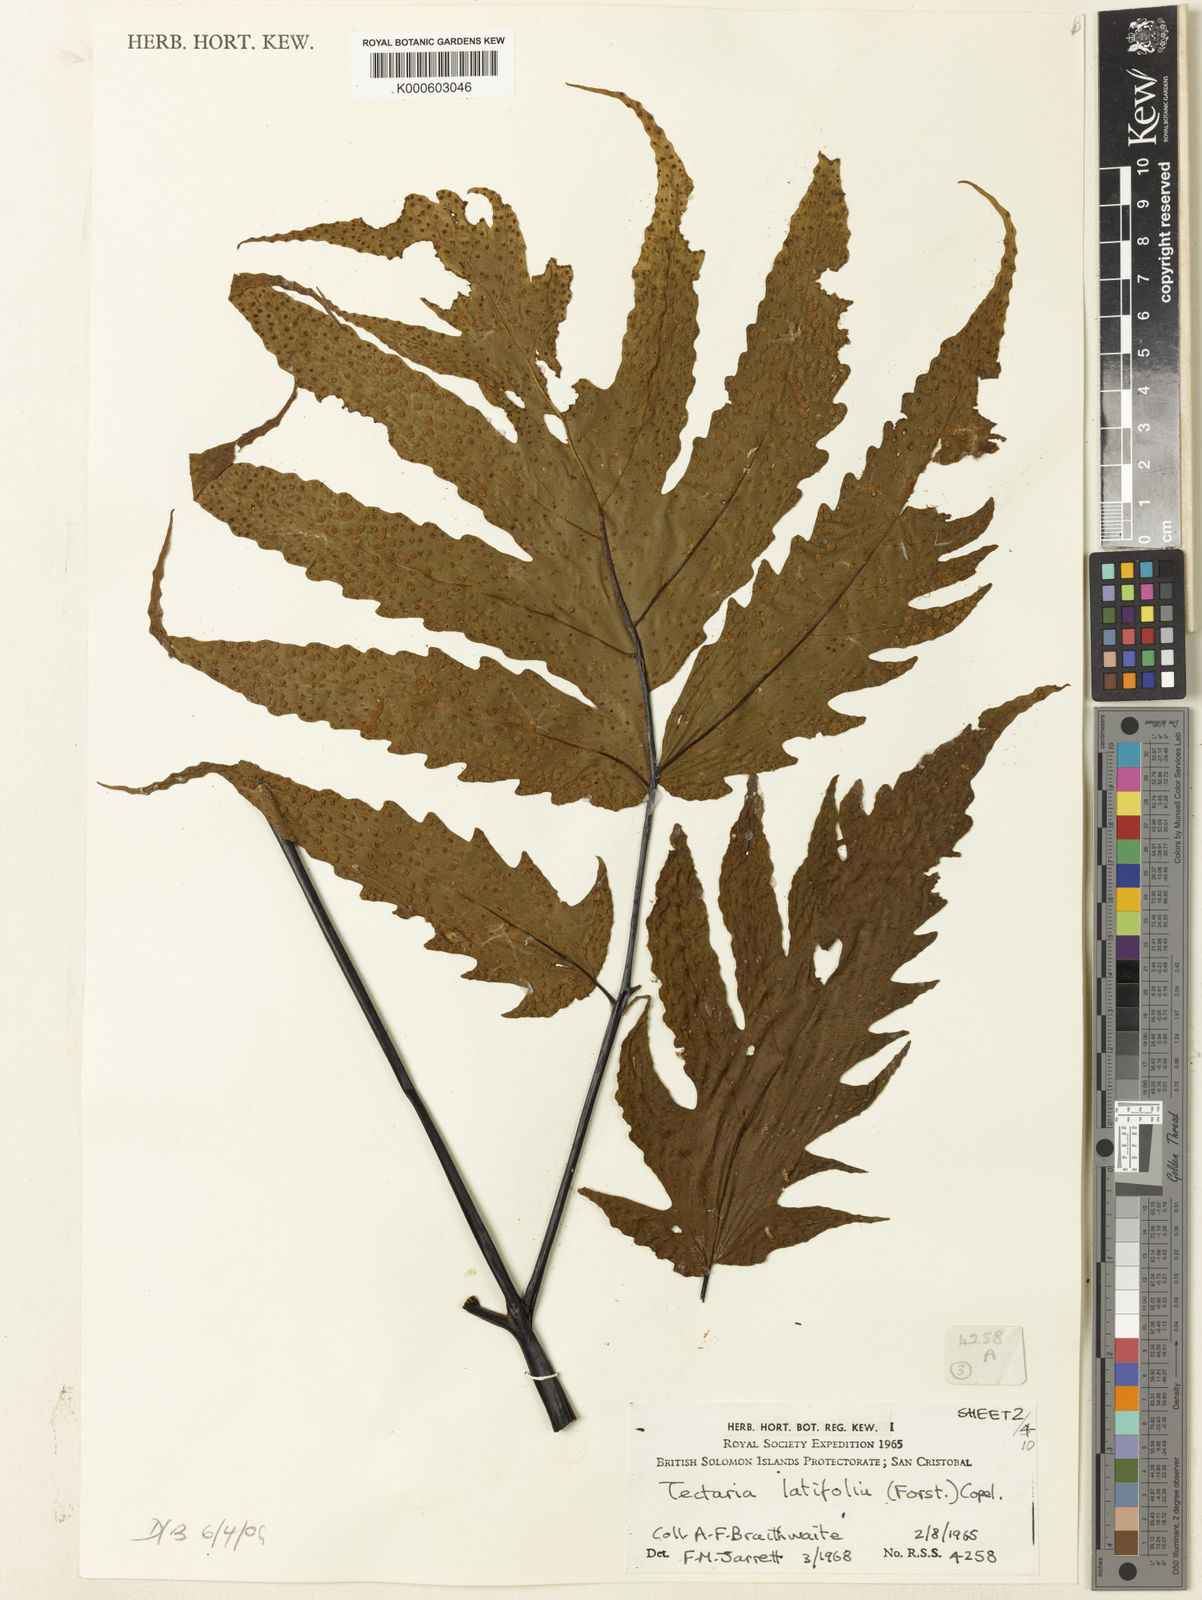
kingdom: Plantae
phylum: Tracheophyta
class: Polypodiopsida
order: Polypodiales
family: Tectariaceae
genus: Tectaria
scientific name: Tectaria
